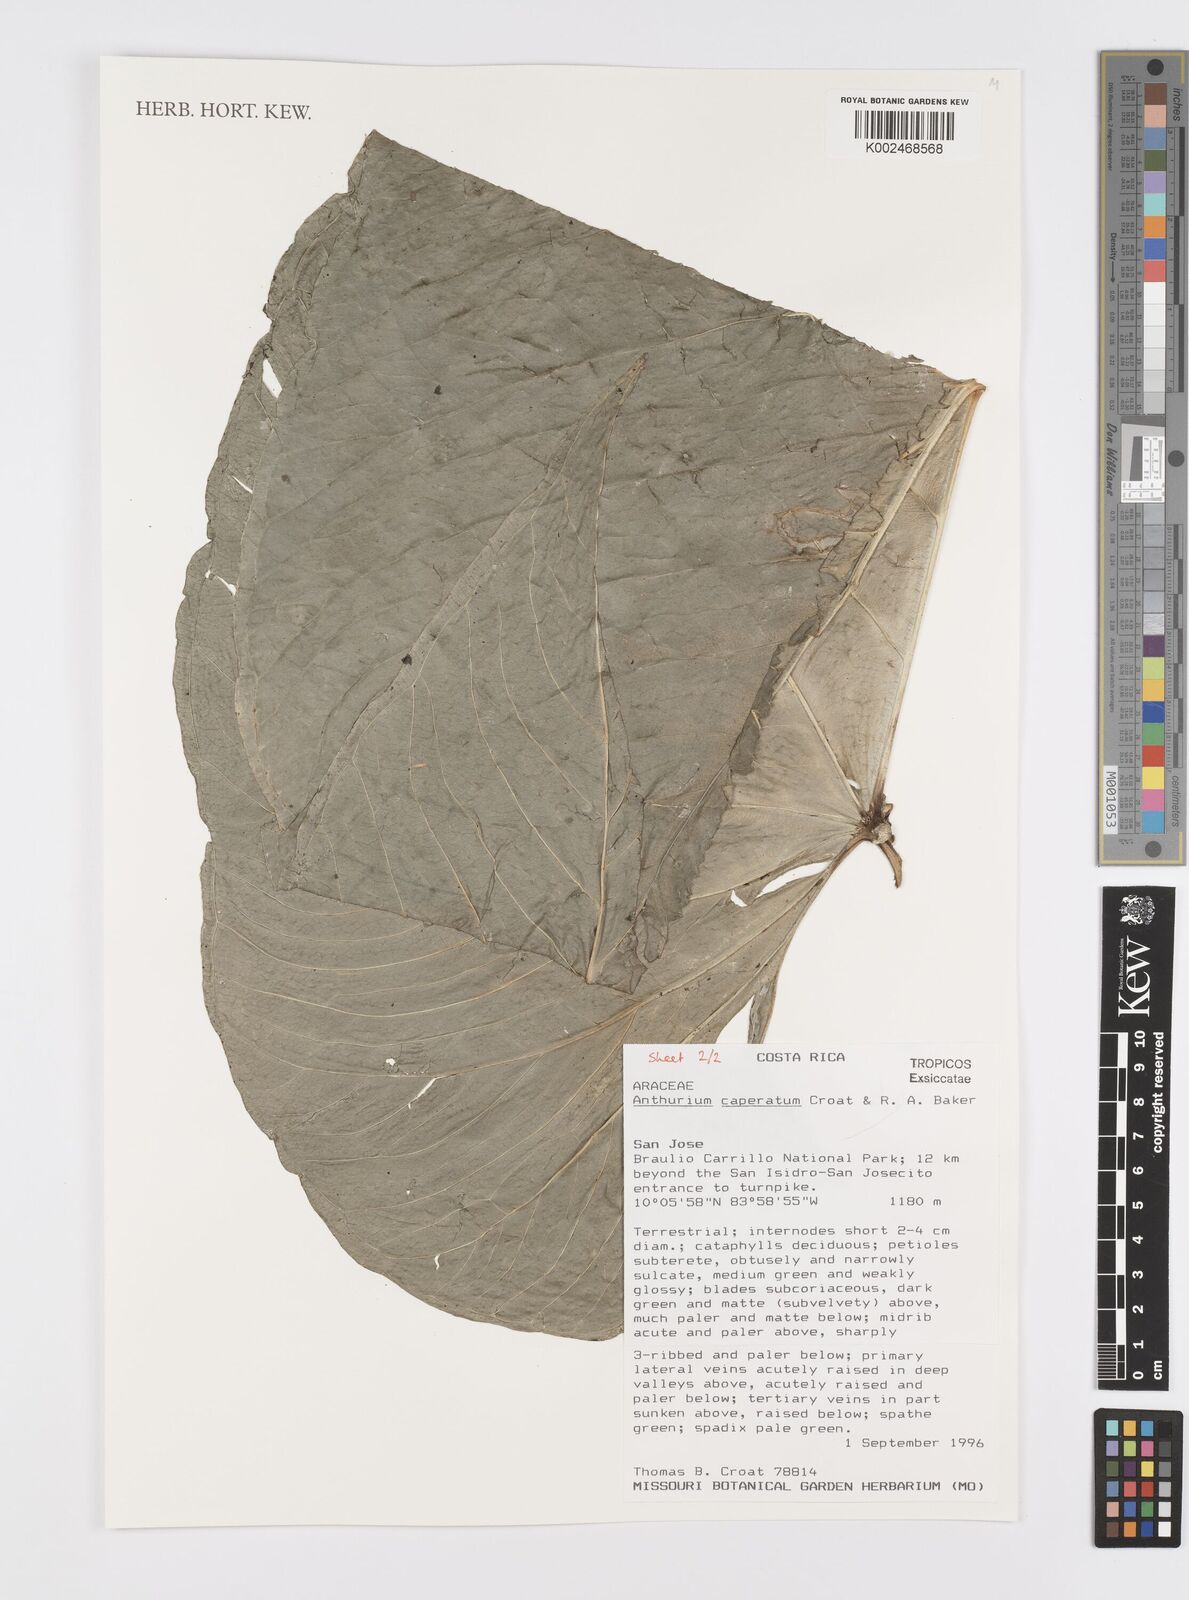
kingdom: Plantae
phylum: Tracheophyta
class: Liliopsida
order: Alismatales
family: Araceae
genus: Anthurium
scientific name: Anthurium caperatum
